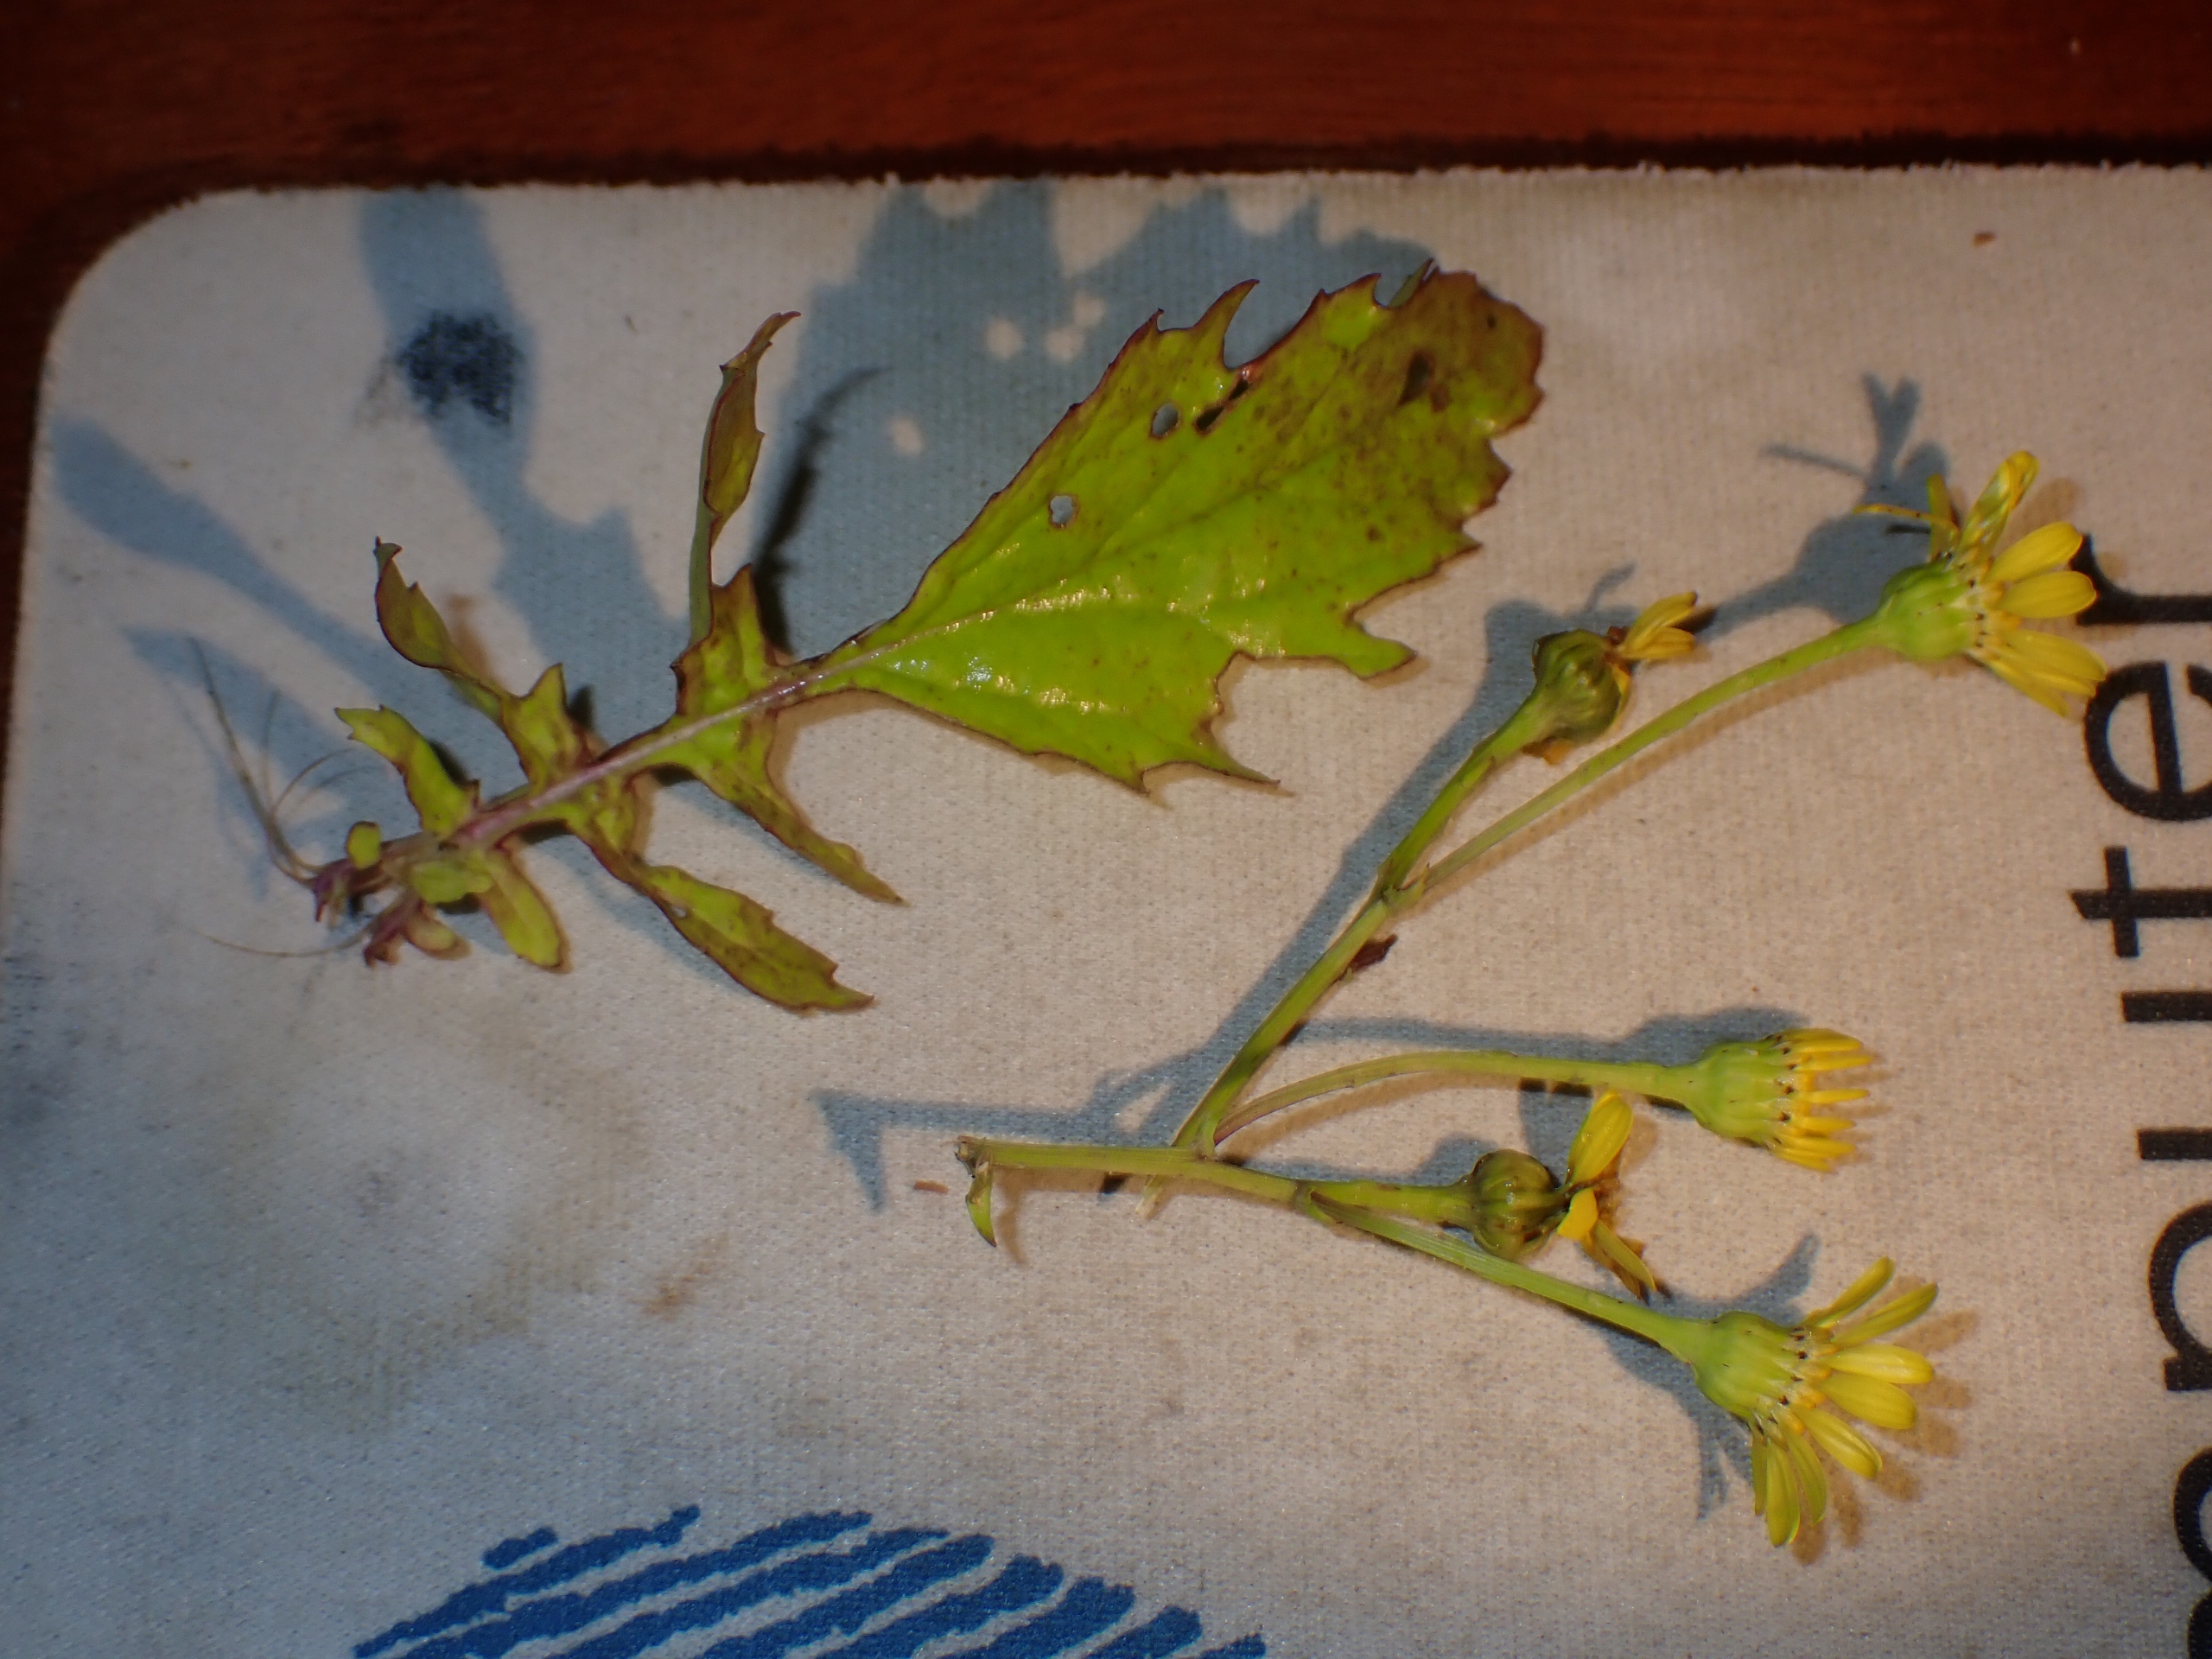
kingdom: Plantae
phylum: Tracheophyta
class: Magnoliopsida
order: Asterales
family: Asteraceae
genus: Jacobaea
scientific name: Jacobaea erratica
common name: Småblomstret brandbæger
